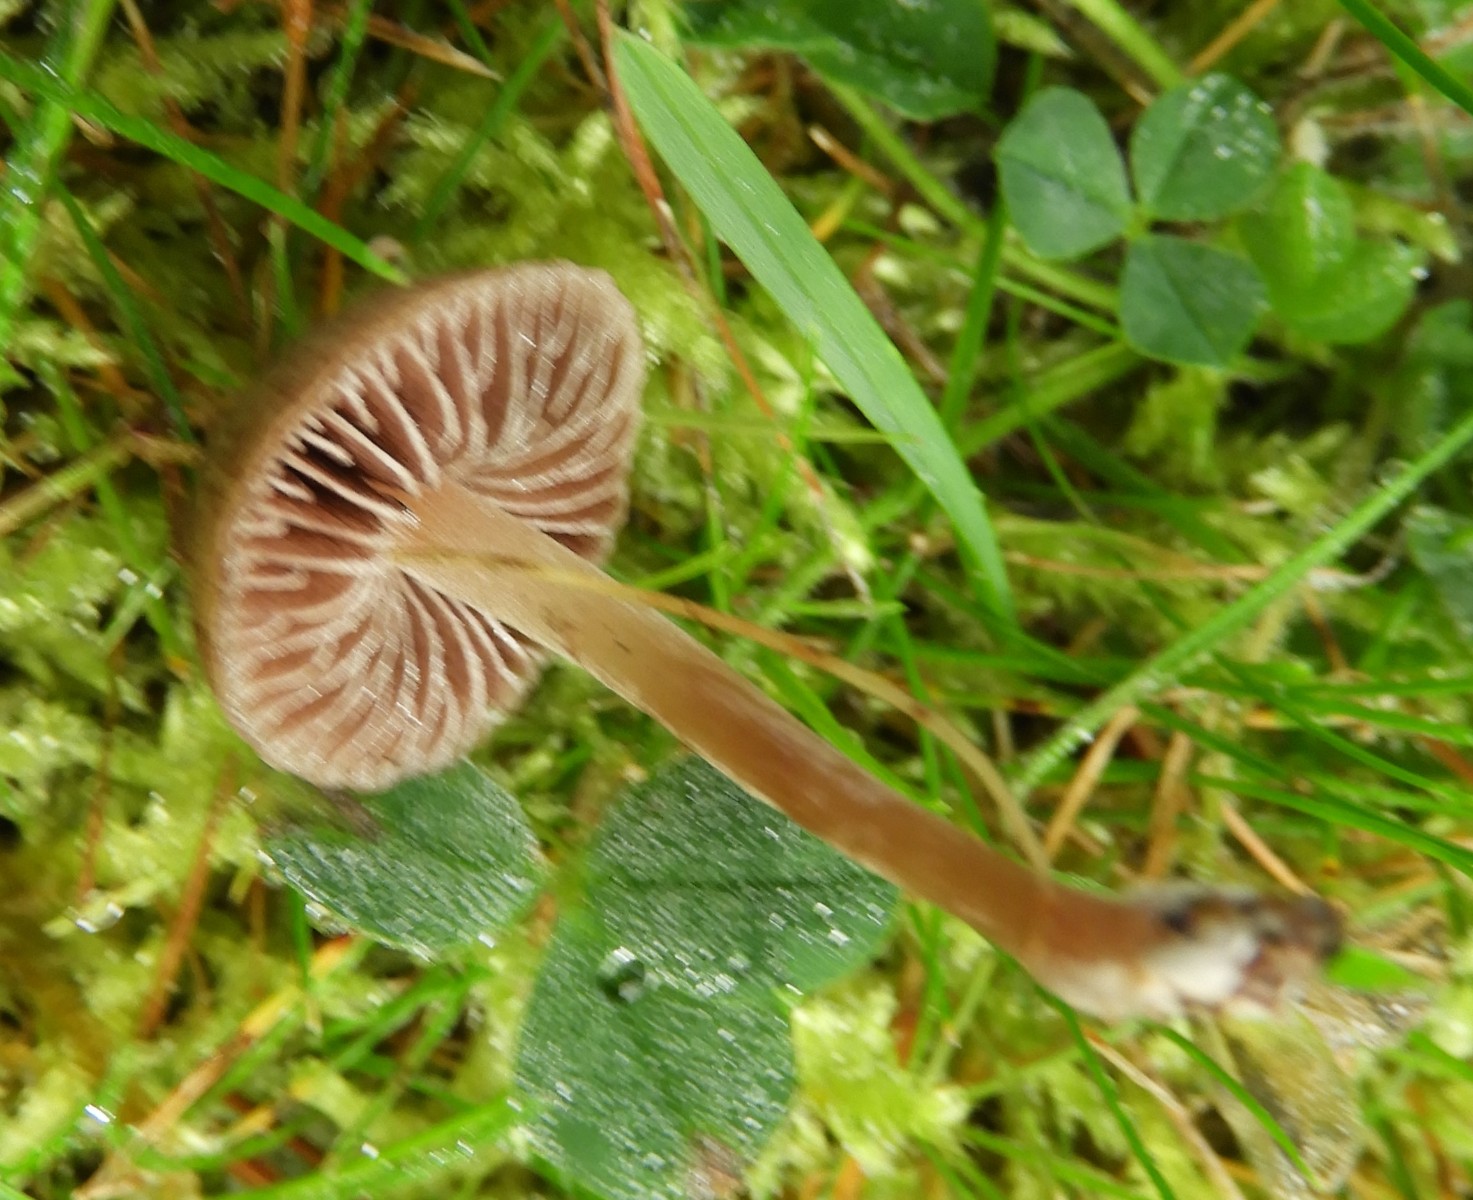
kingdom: Fungi
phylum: Basidiomycota
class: Agaricomycetes
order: Agaricales
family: Bolbitiaceae
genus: Panaeolina
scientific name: Panaeolina foenisecii
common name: høslætsvamp
